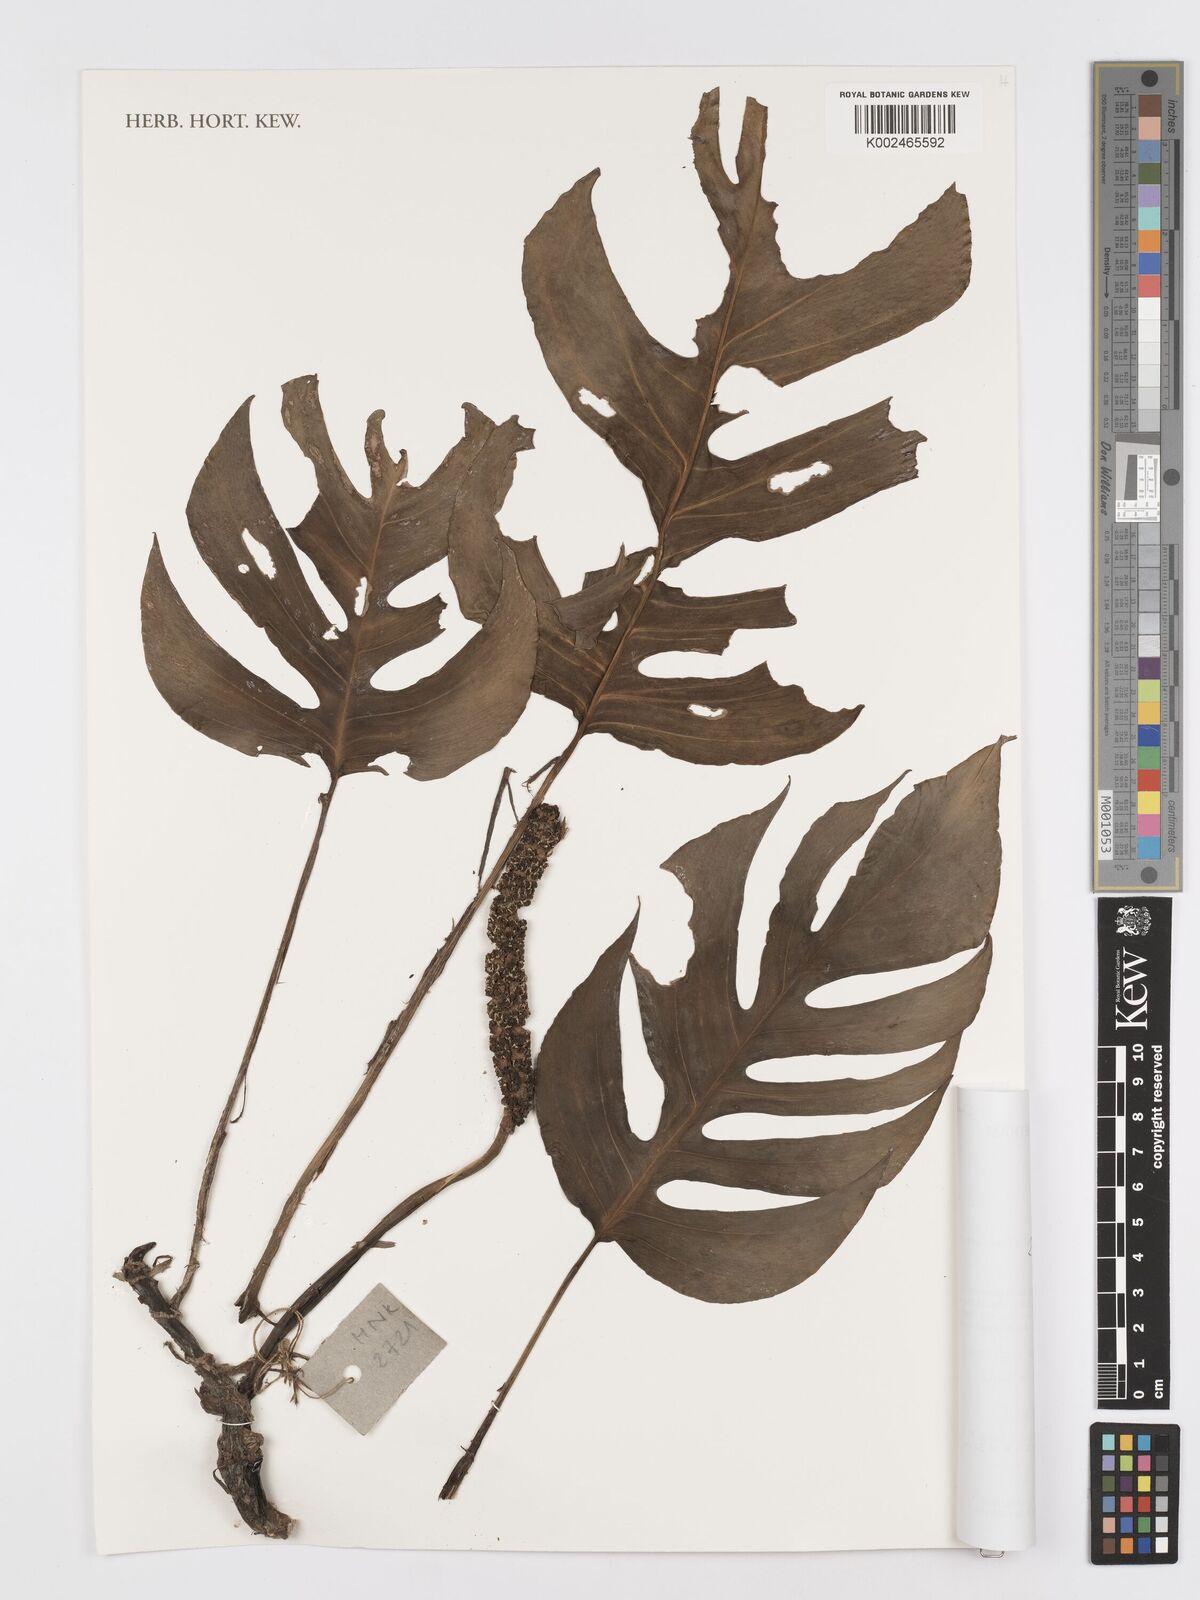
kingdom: Plantae
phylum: Tracheophyta
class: Liliopsida
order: Alismatales
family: Araceae
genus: Rhaphidophora
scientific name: Rhaphidophora
